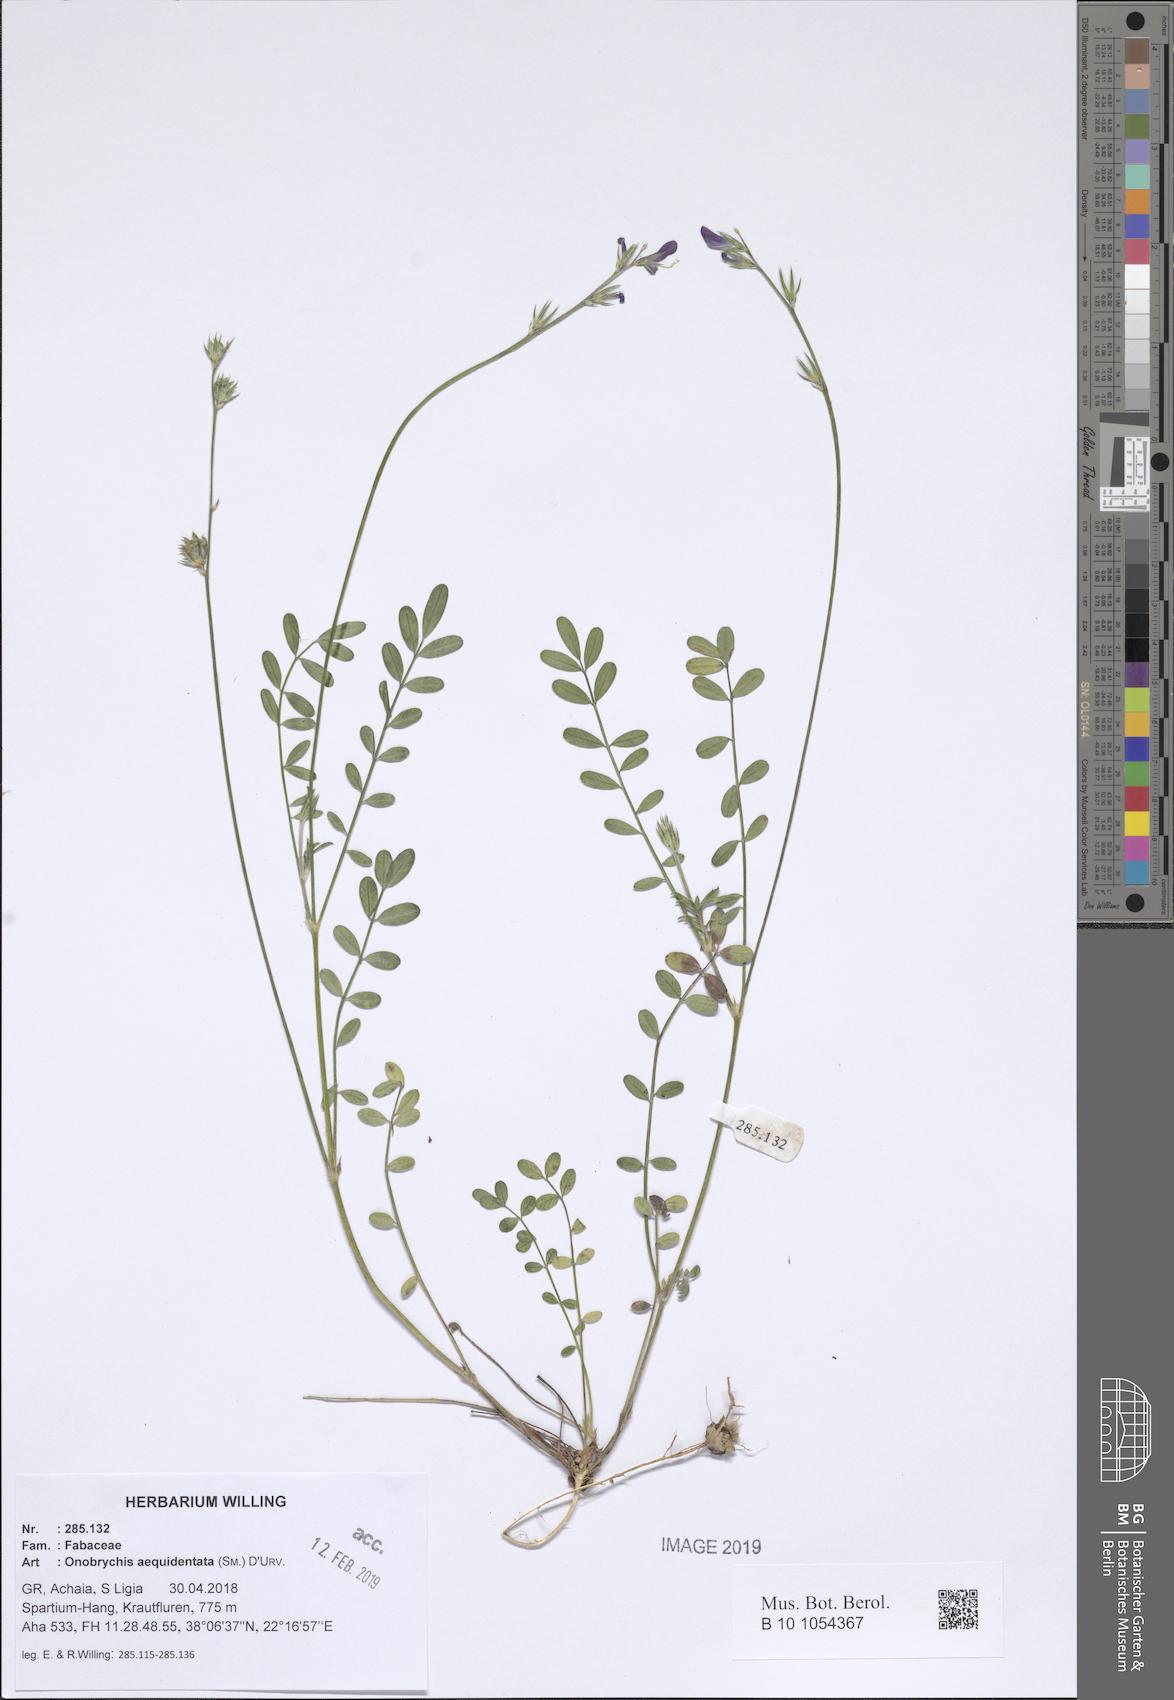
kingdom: Plantae
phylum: Tracheophyta
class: Magnoliopsida
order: Fabales
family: Fabaceae
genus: Onobrychis
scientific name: Onobrychis aequidentata
